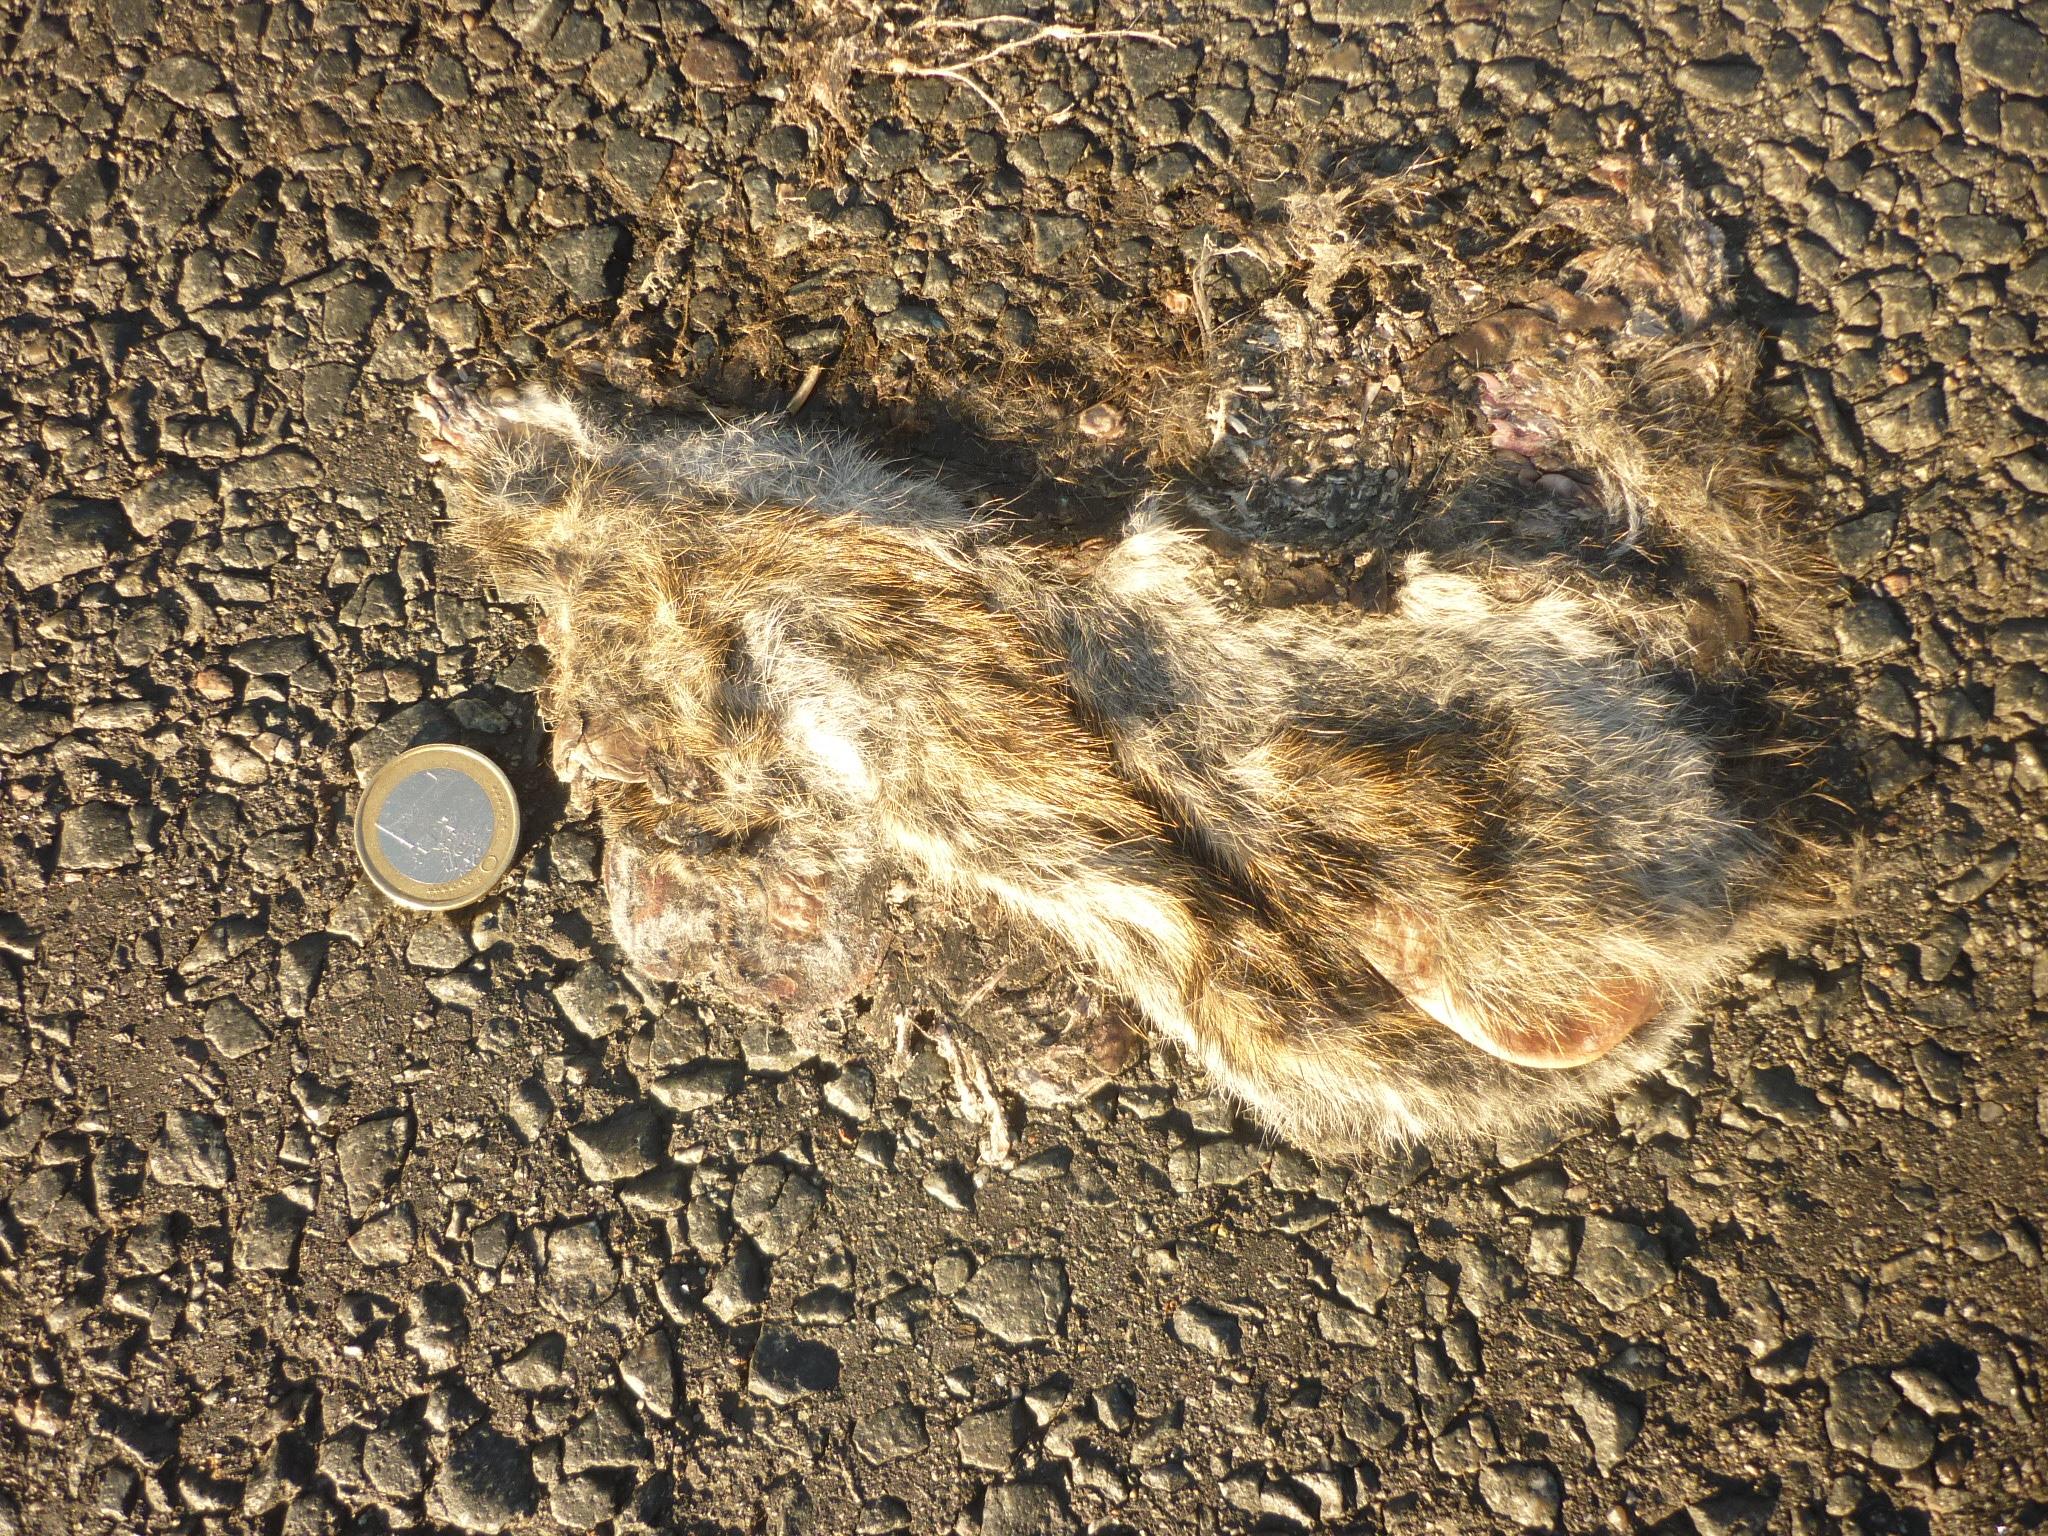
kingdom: Animalia
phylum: Chordata
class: Mammalia
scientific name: Mammalia
